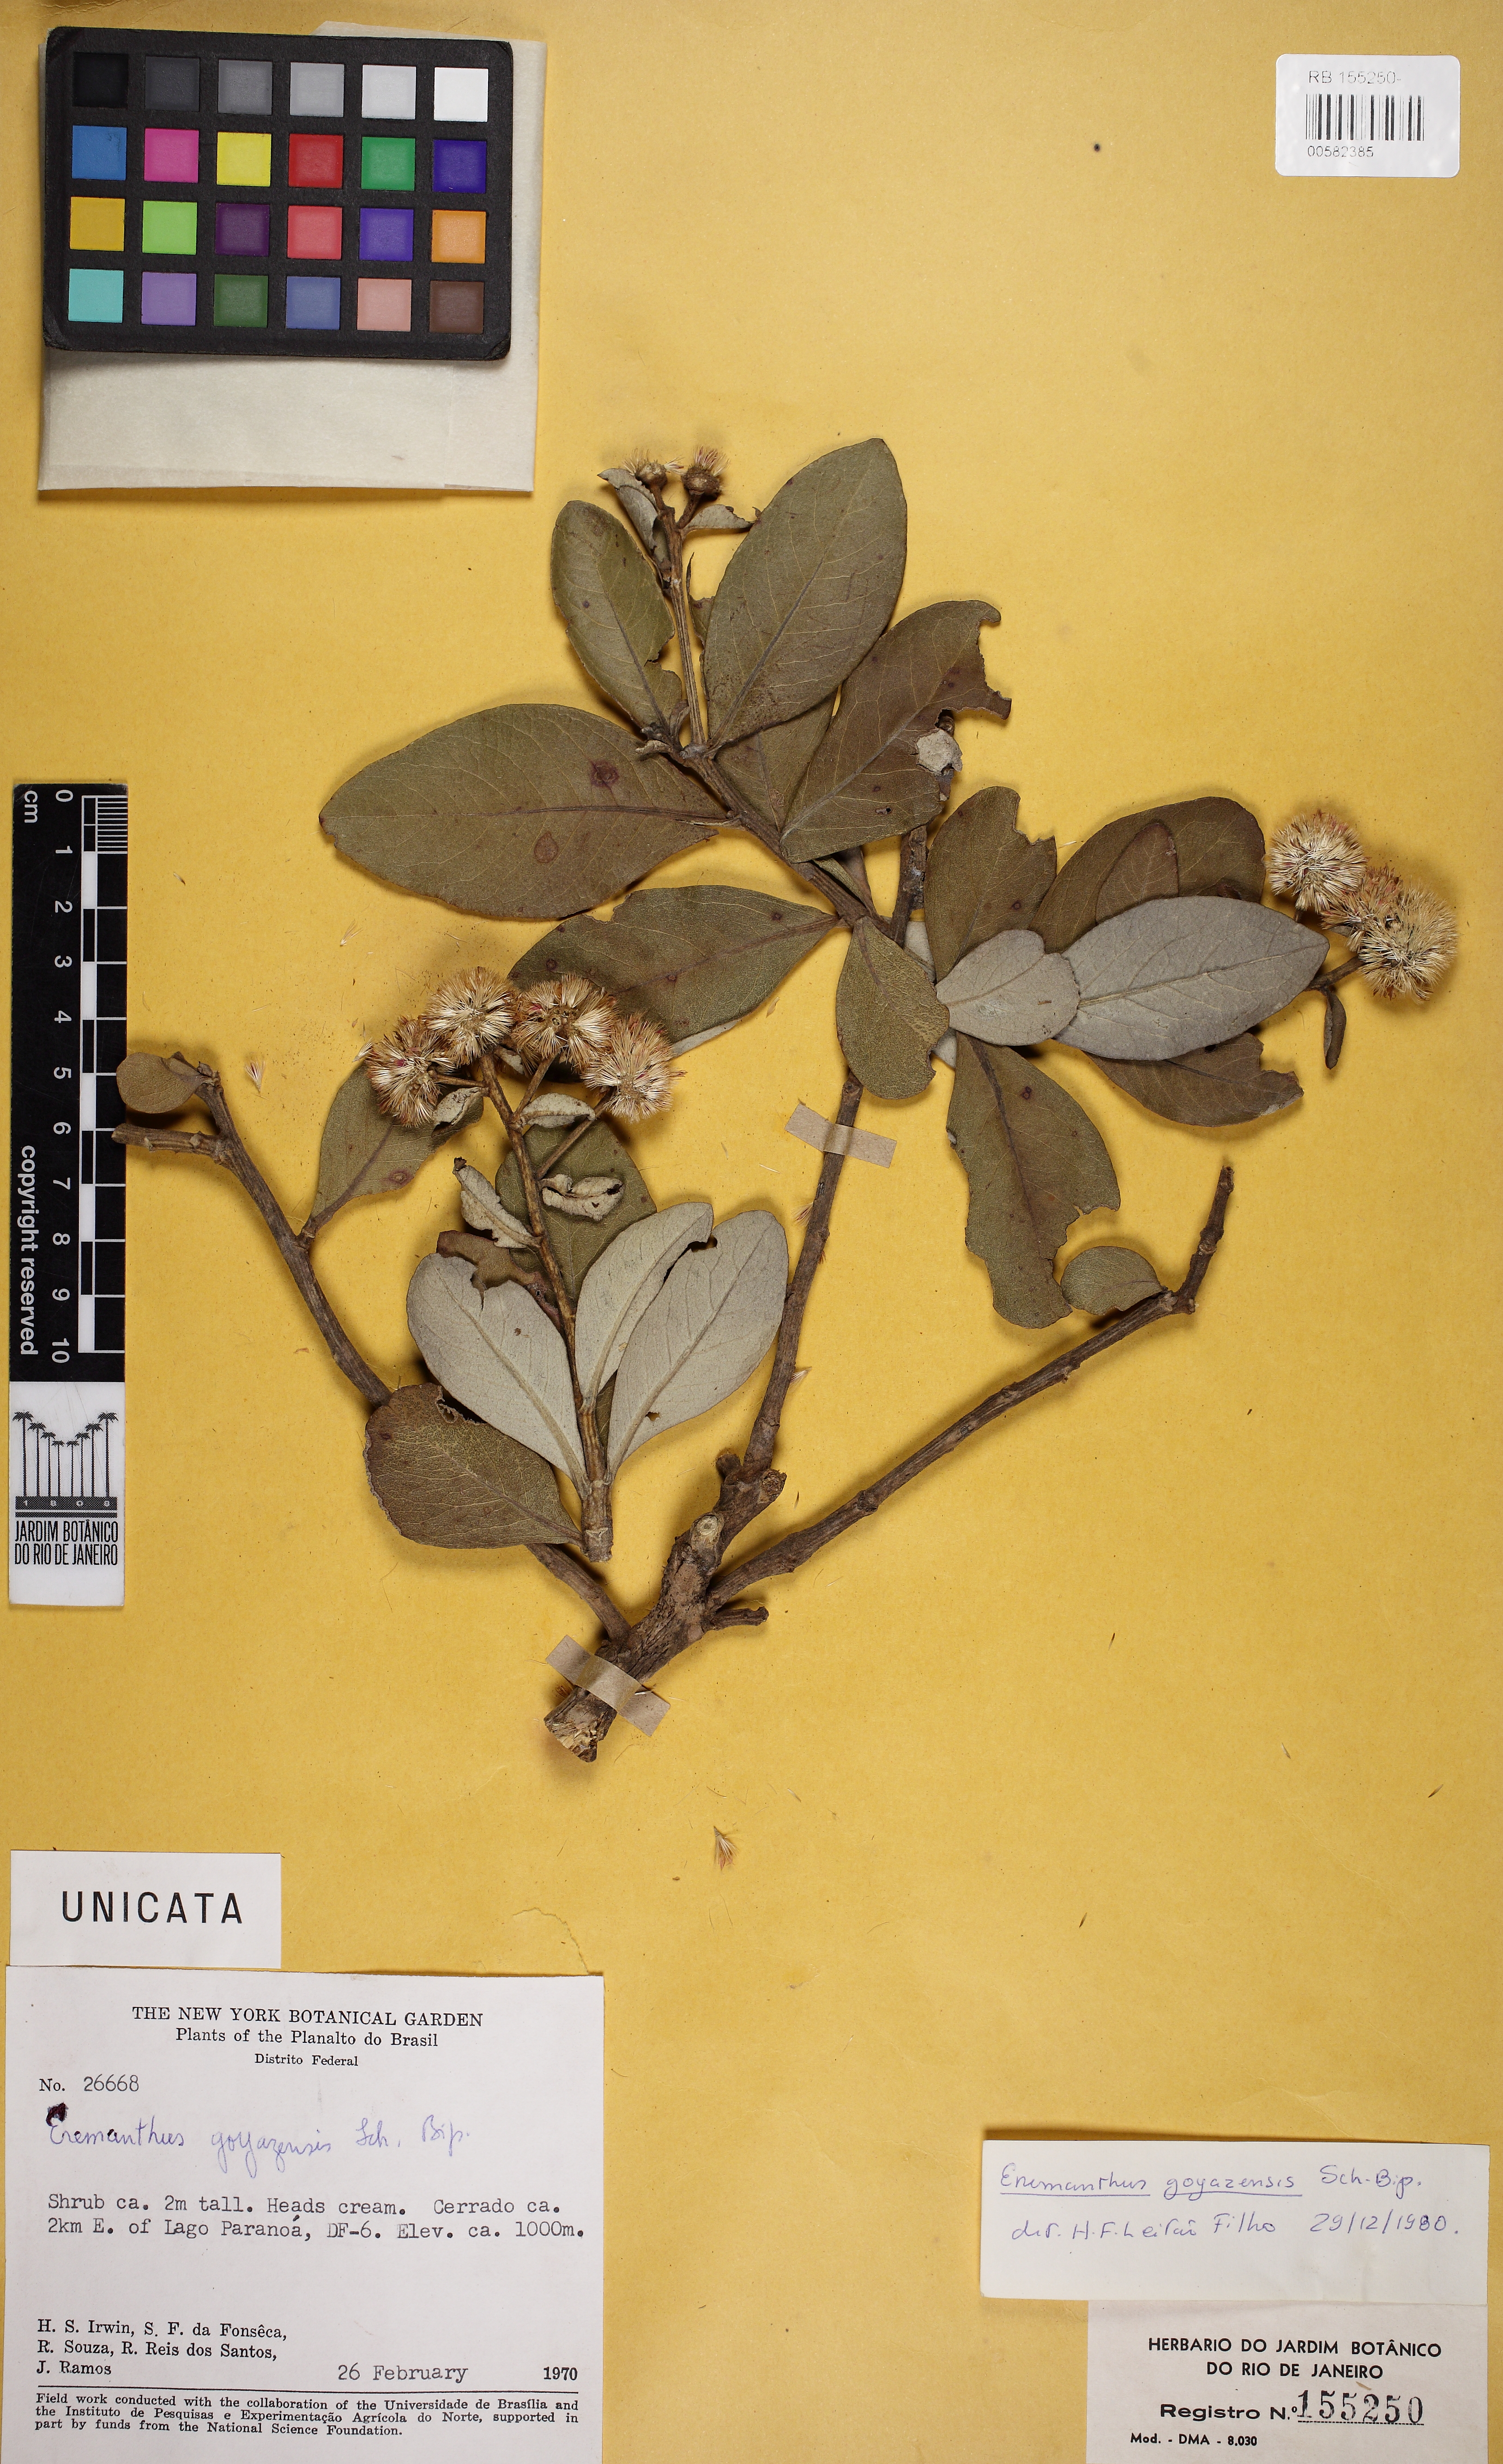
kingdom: Plantae
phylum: Tracheophyta
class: Magnoliopsida
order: Asterales
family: Asteraceae
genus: Eremanthus
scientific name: Eremanthus goyazensis
